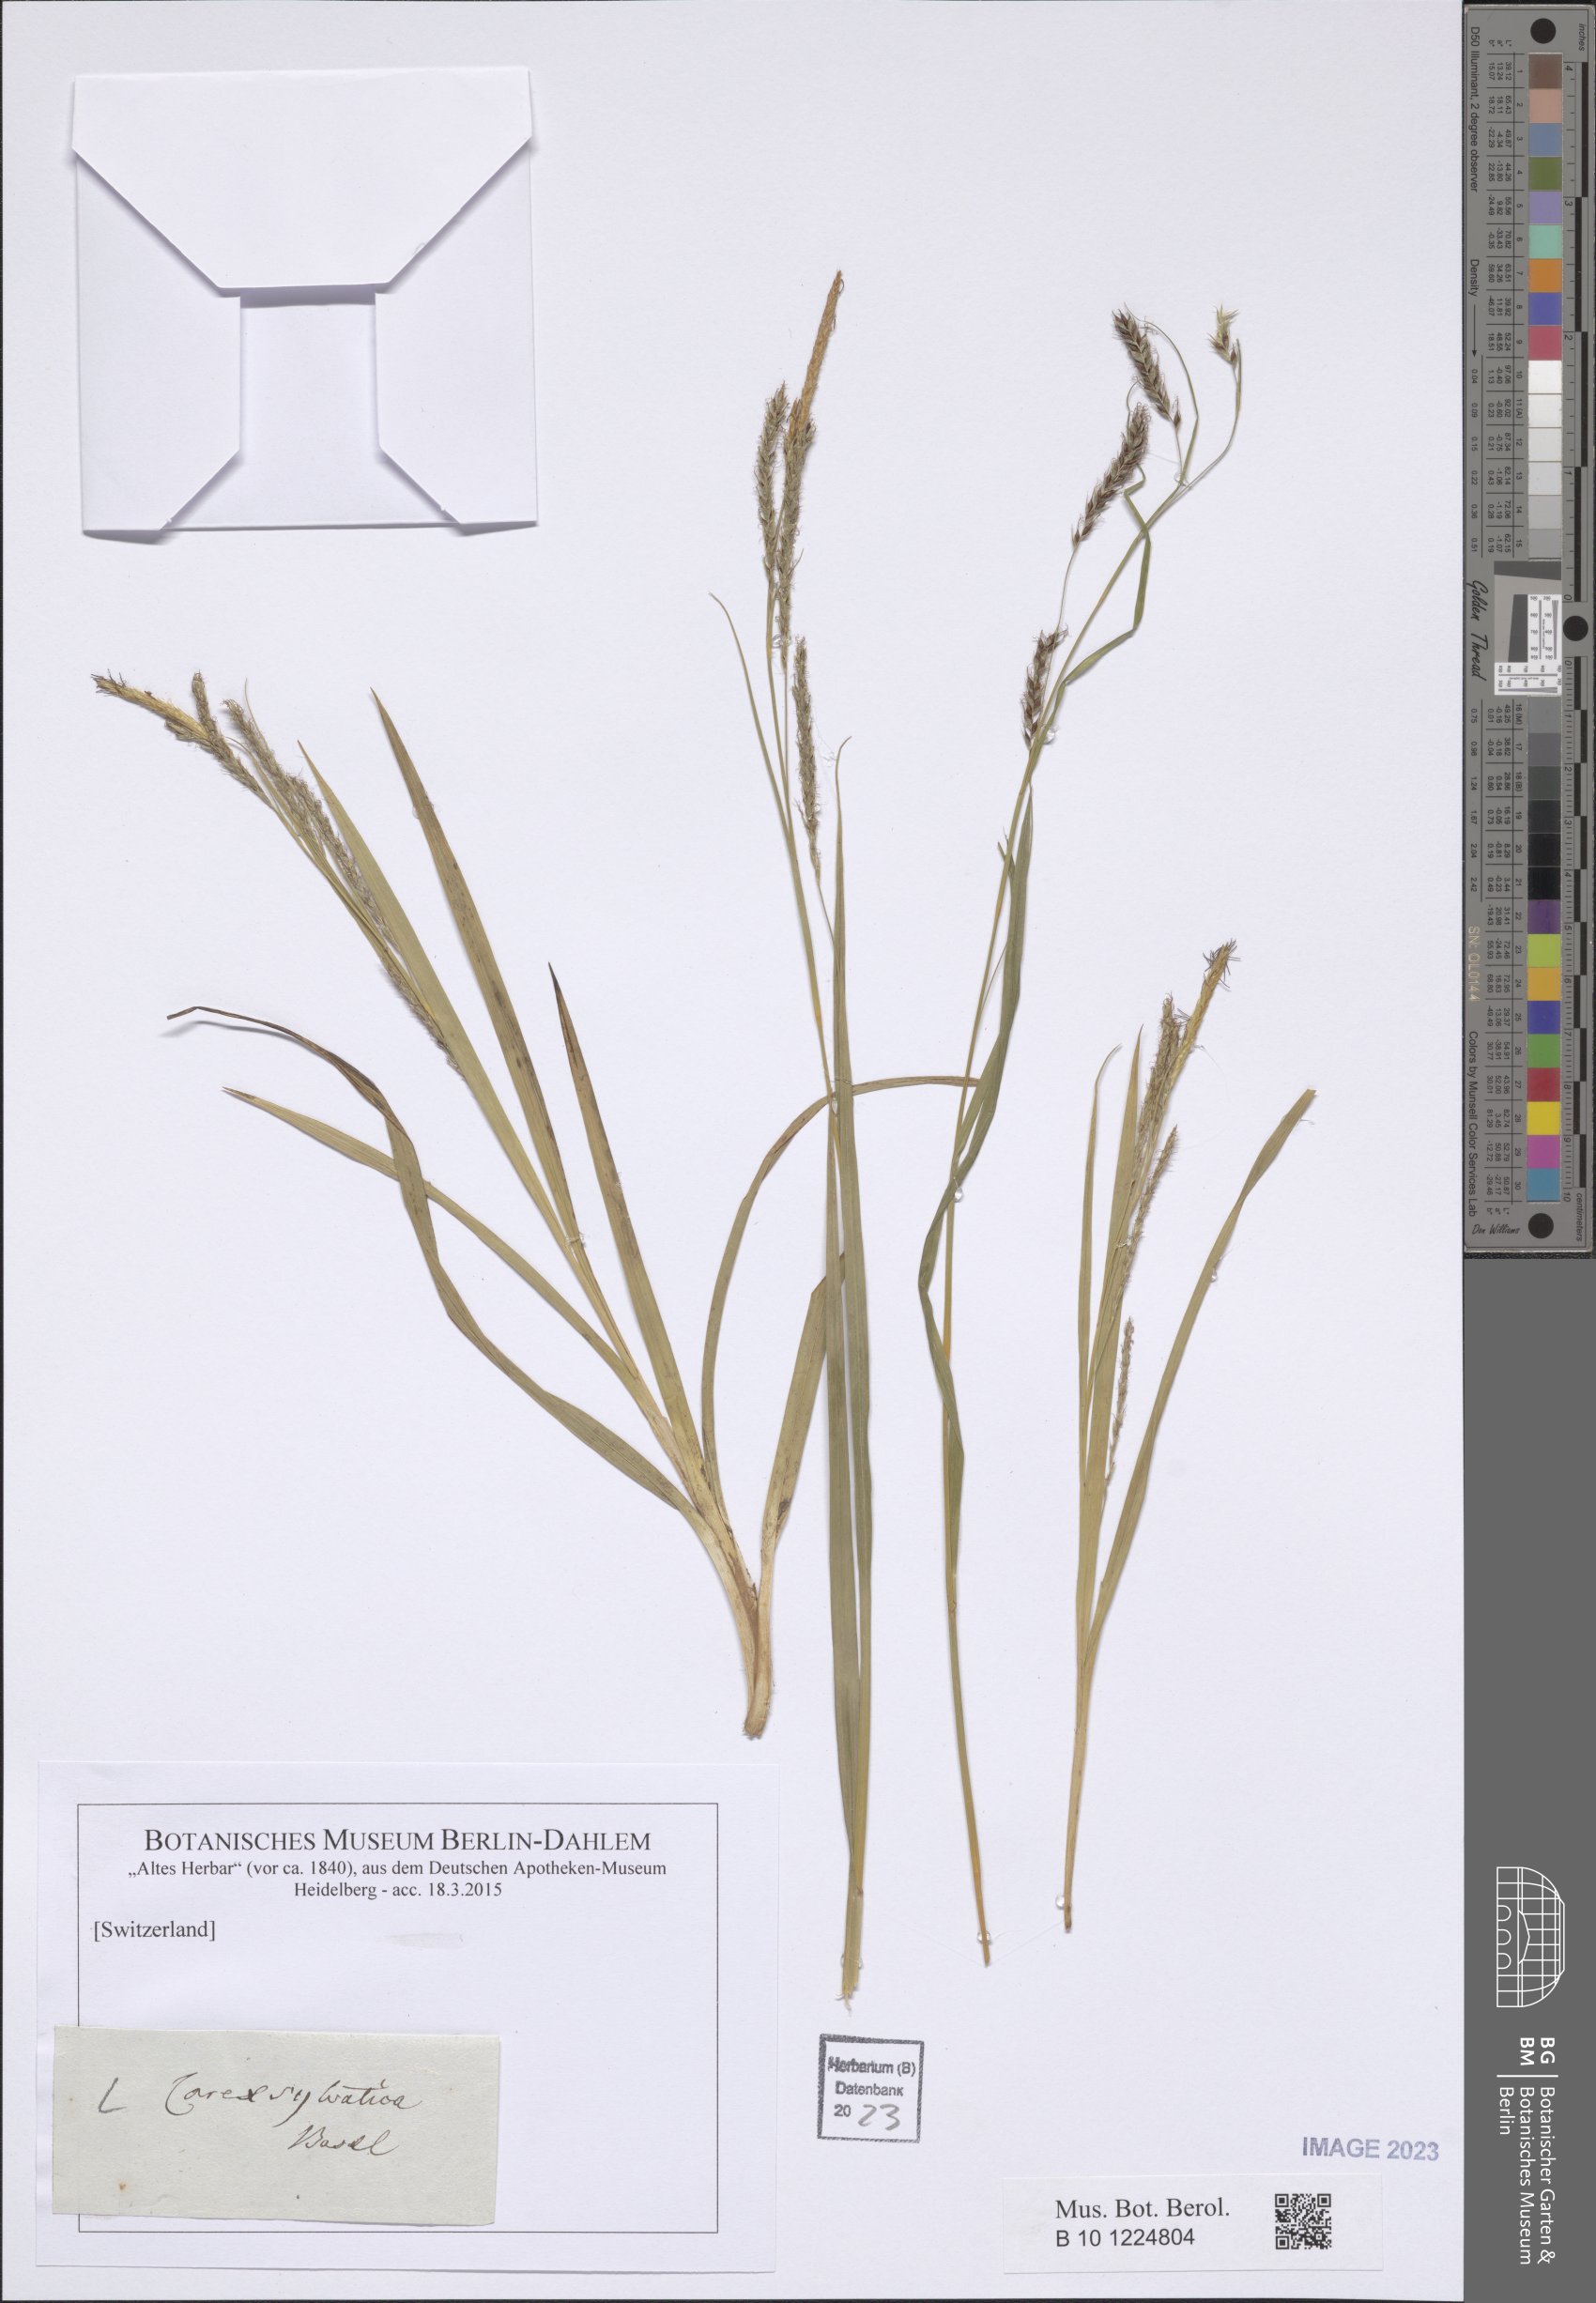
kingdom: Plantae
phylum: Tracheophyta
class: Liliopsida
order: Poales
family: Cyperaceae
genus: Carex
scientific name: Carex sylvatica
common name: Wood-sedge
